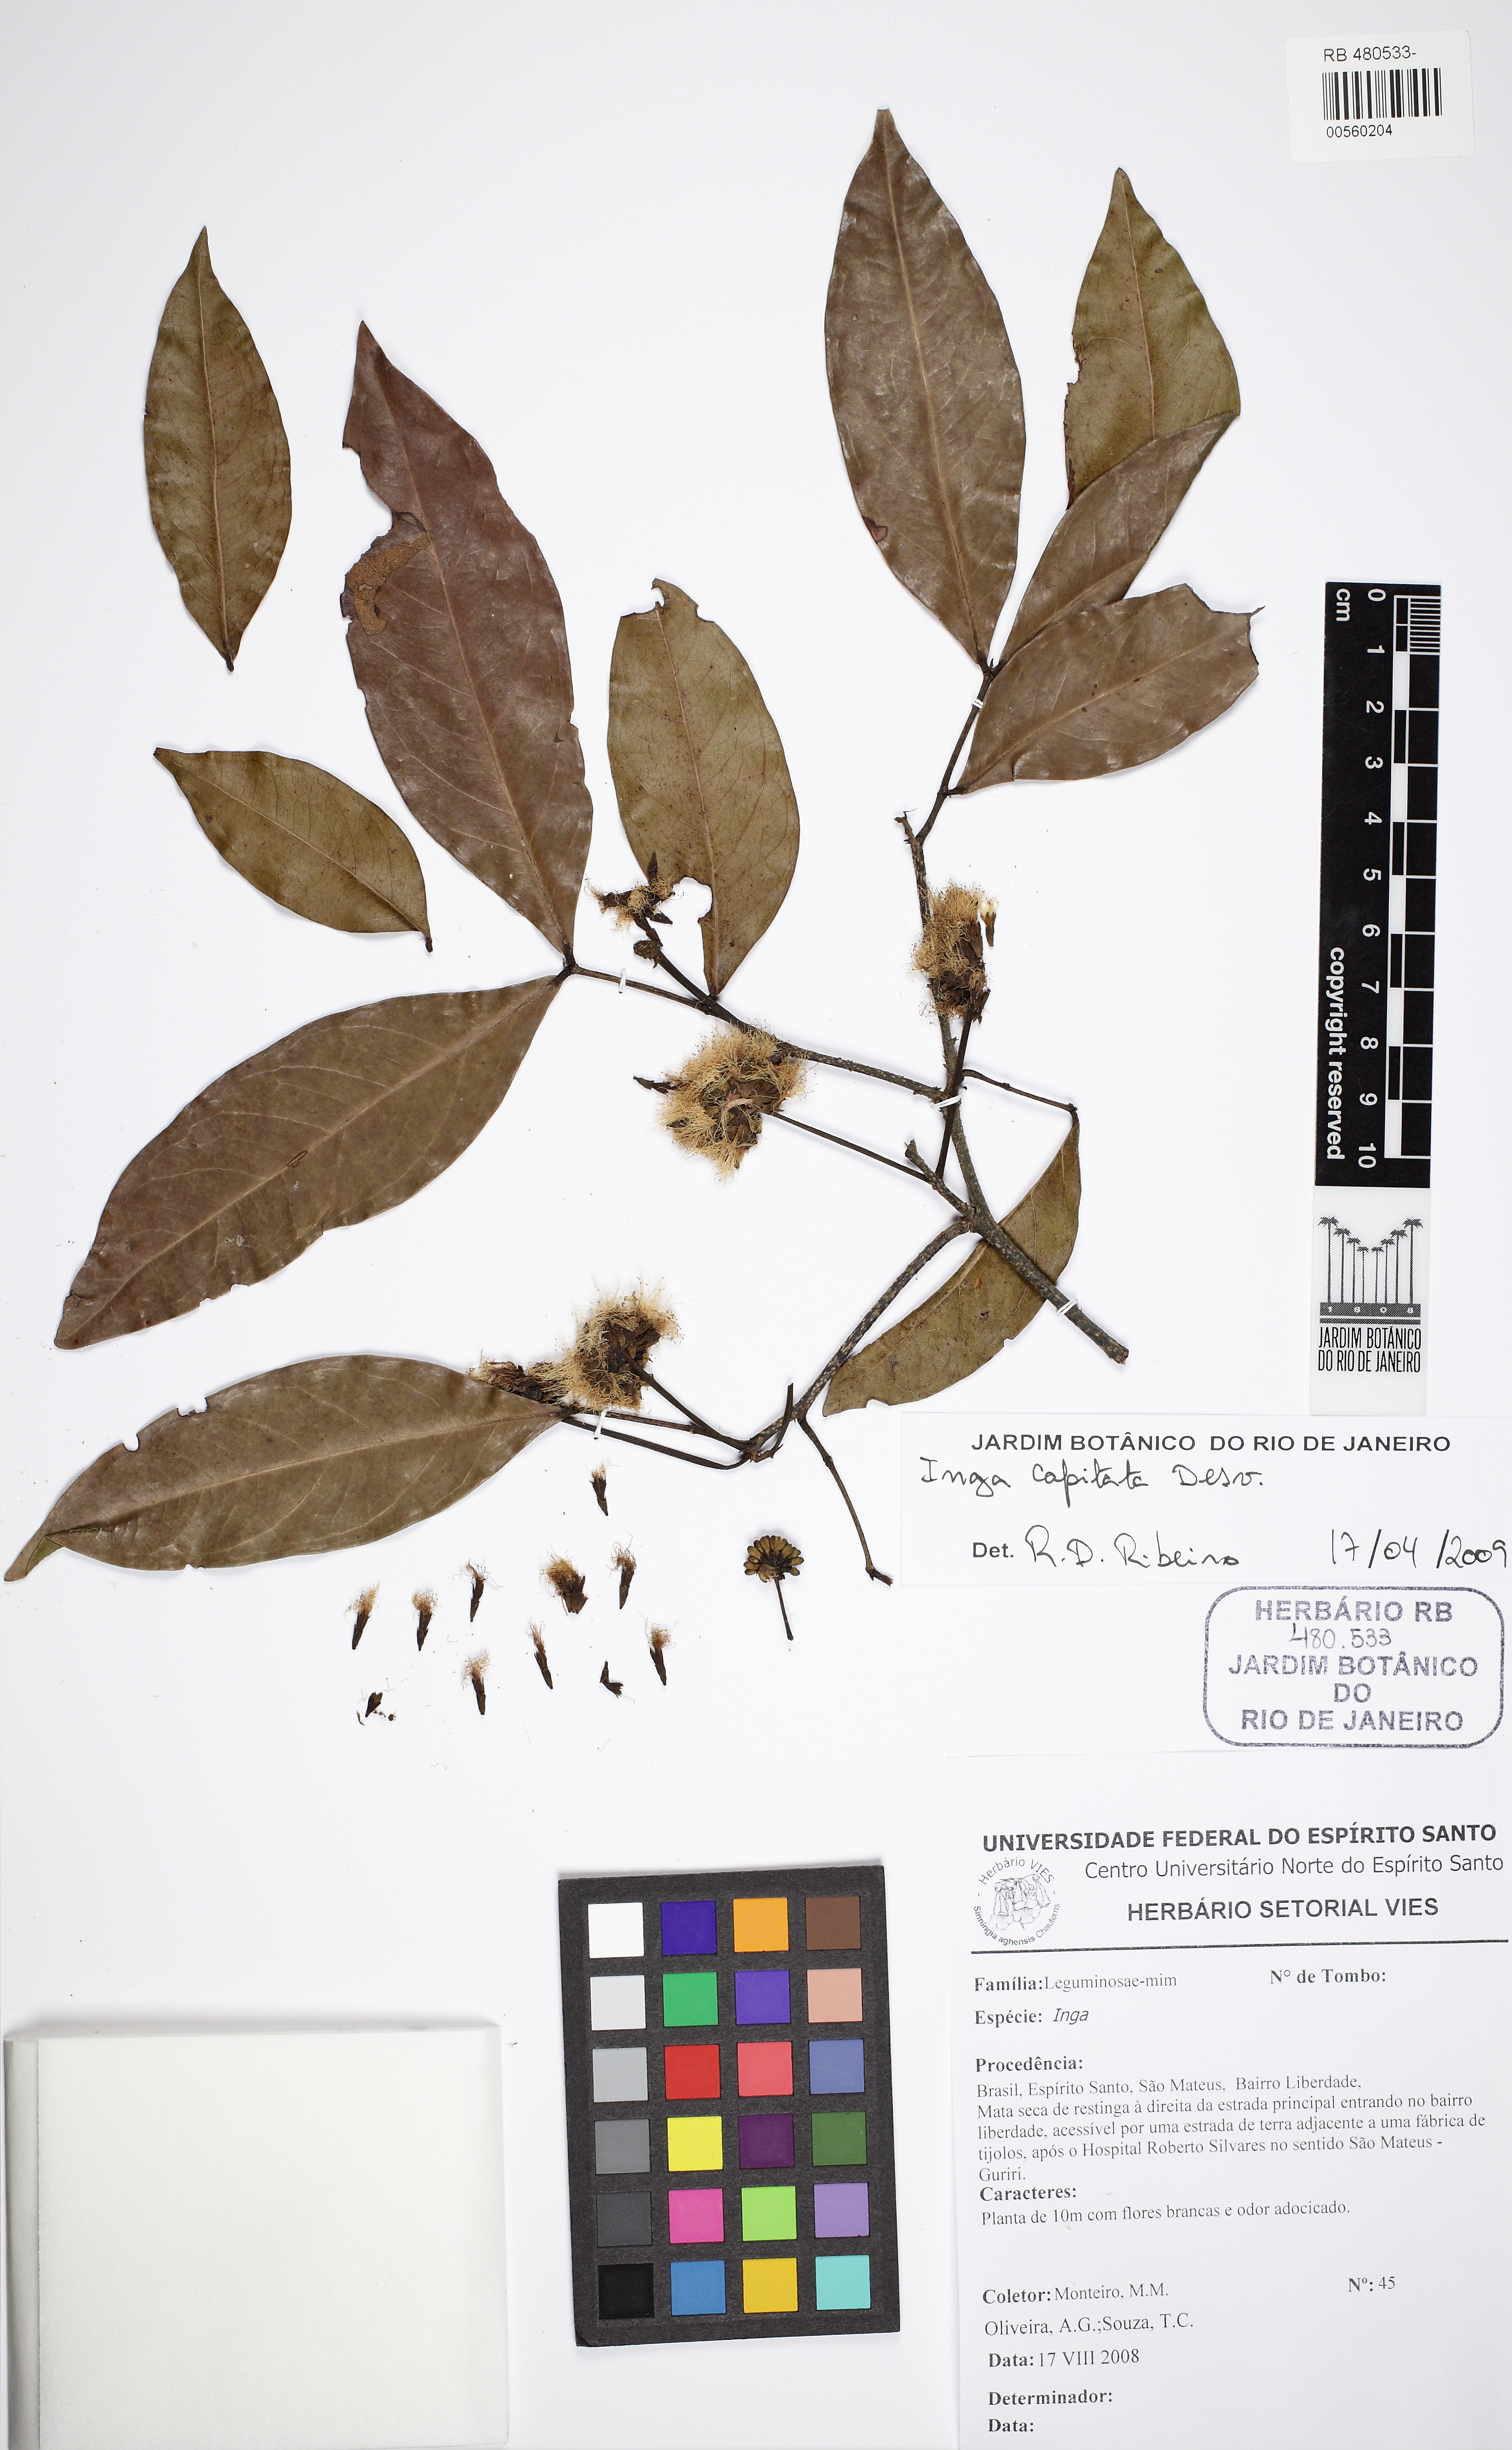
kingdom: Plantae
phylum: Tracheophyta
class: Magnoliopsida
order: Fabales
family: Fabaceae
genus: Inga
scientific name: Inga capitata
